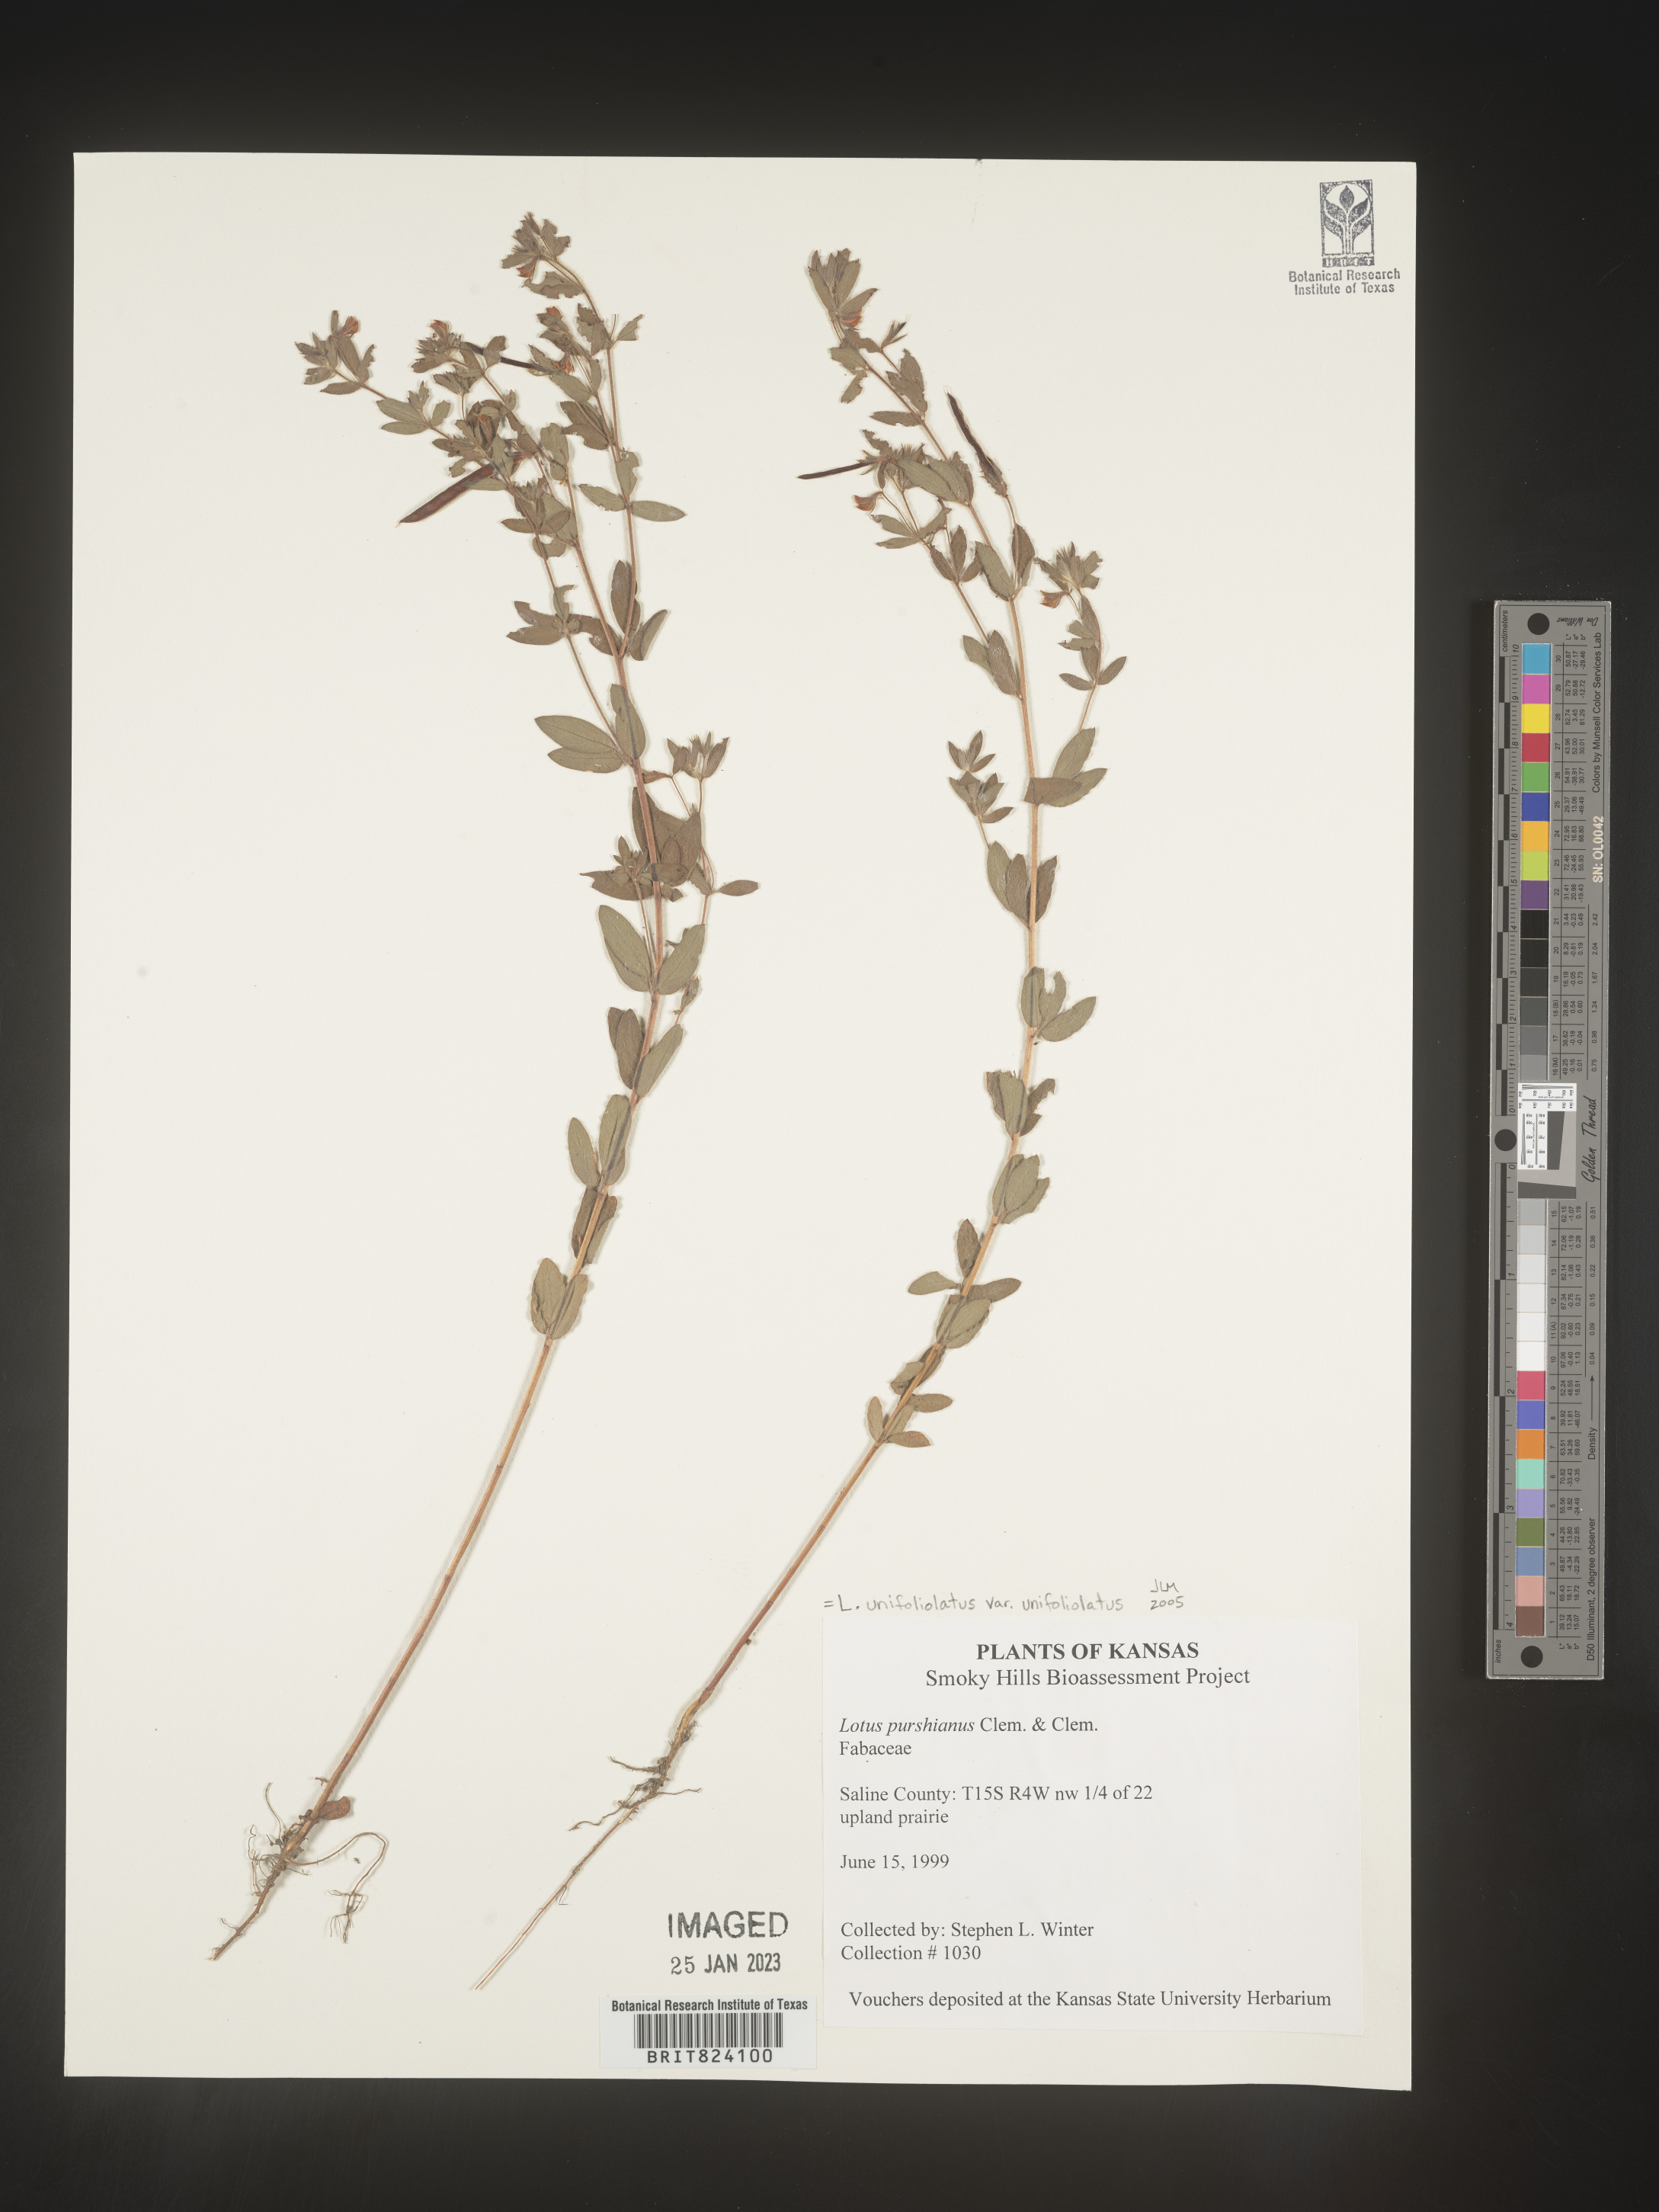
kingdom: Plantae
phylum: Tracheophyta
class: Magnoliopsida
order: Fabales
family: Fabaceae
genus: Acmispon
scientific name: Acmispon wrightii
